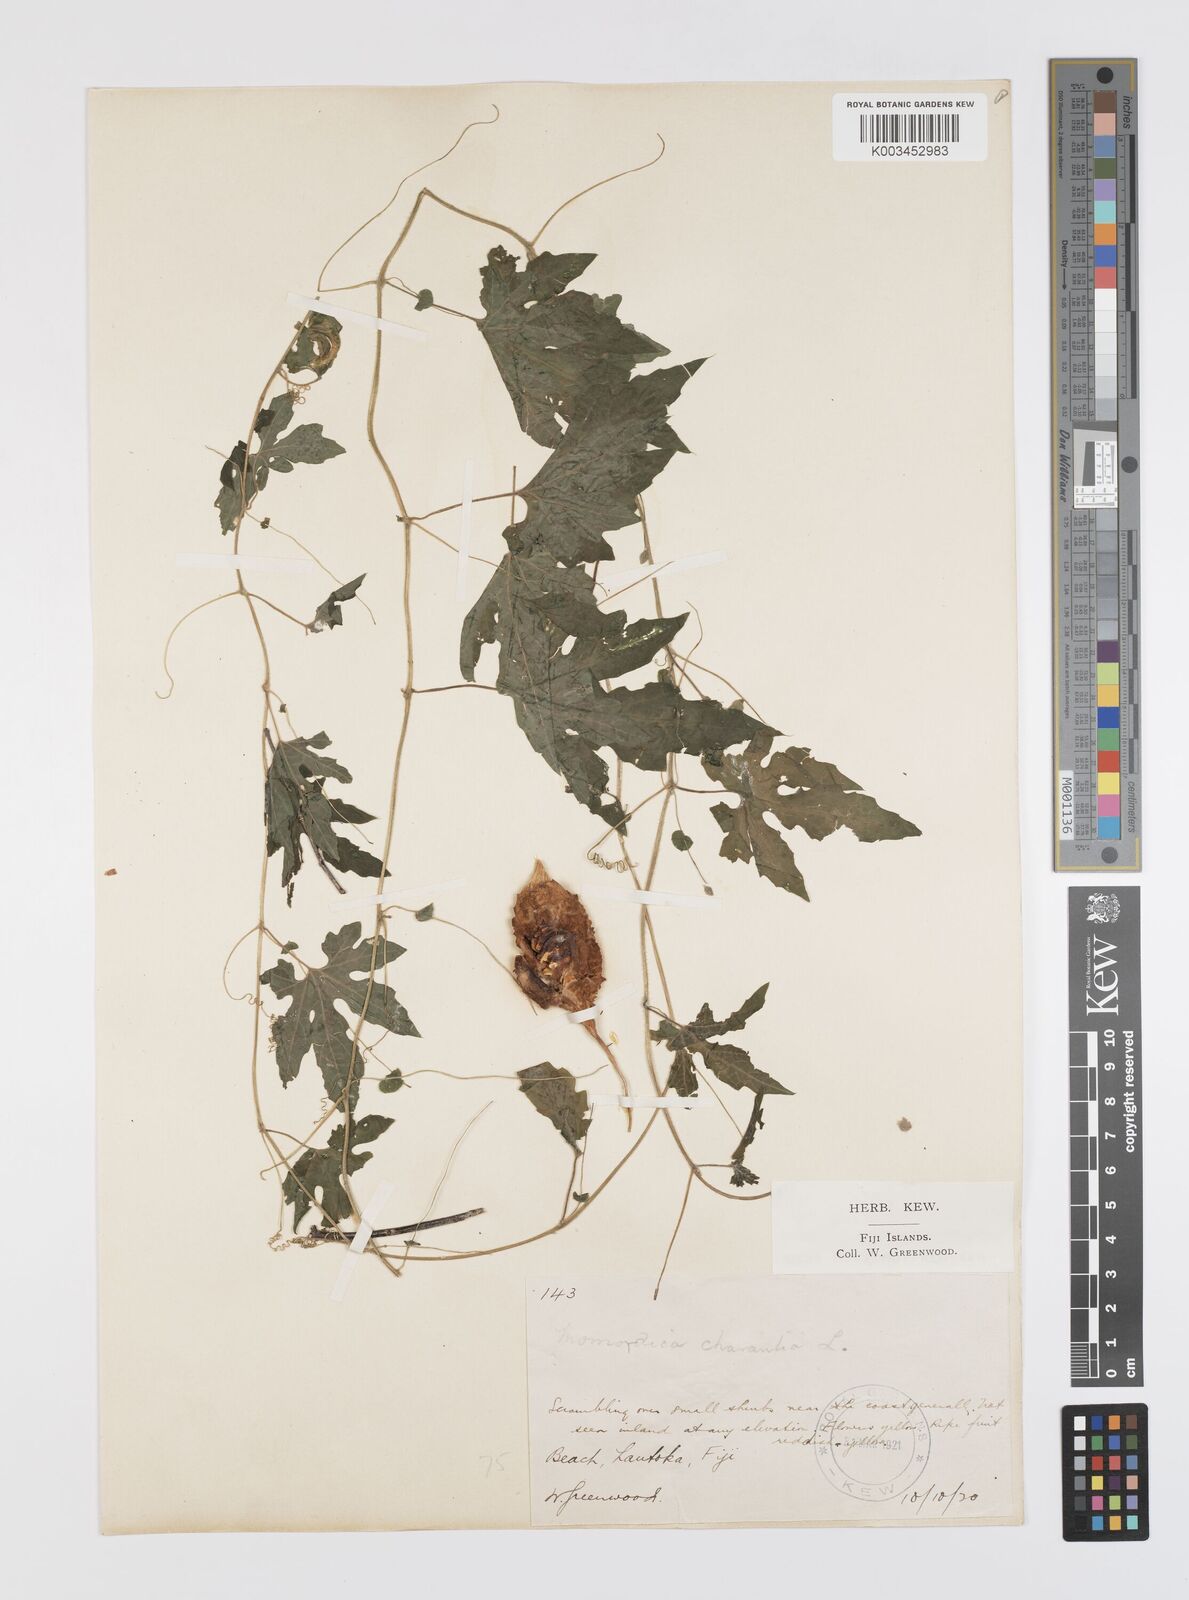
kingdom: Plantae
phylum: Tracheophyta
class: Magnoliopsida
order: Cucurbitales
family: Cucurbitaceae
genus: Momordica
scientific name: Momordica charantia
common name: Balsampear
